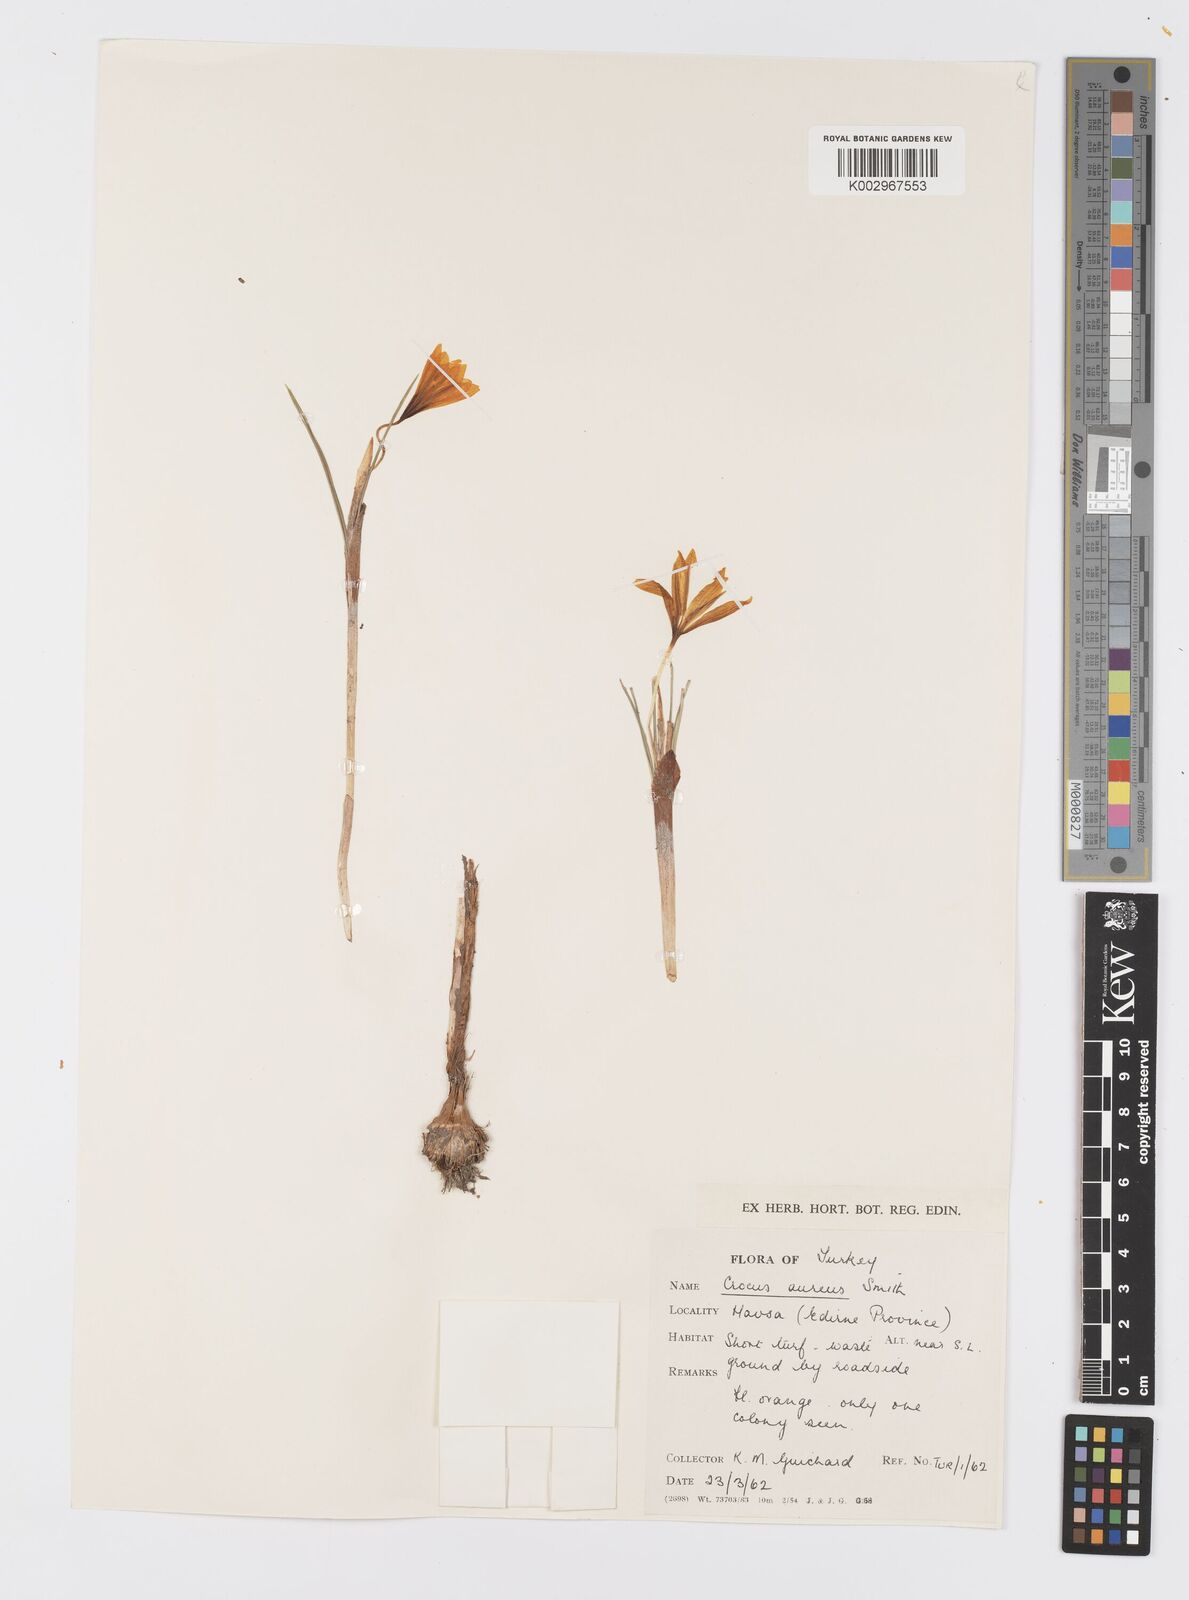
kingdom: Plantae
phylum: Tracheophyta
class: Liliopsida
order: Asparagales
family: Iridaceae
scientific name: Iridaceae
